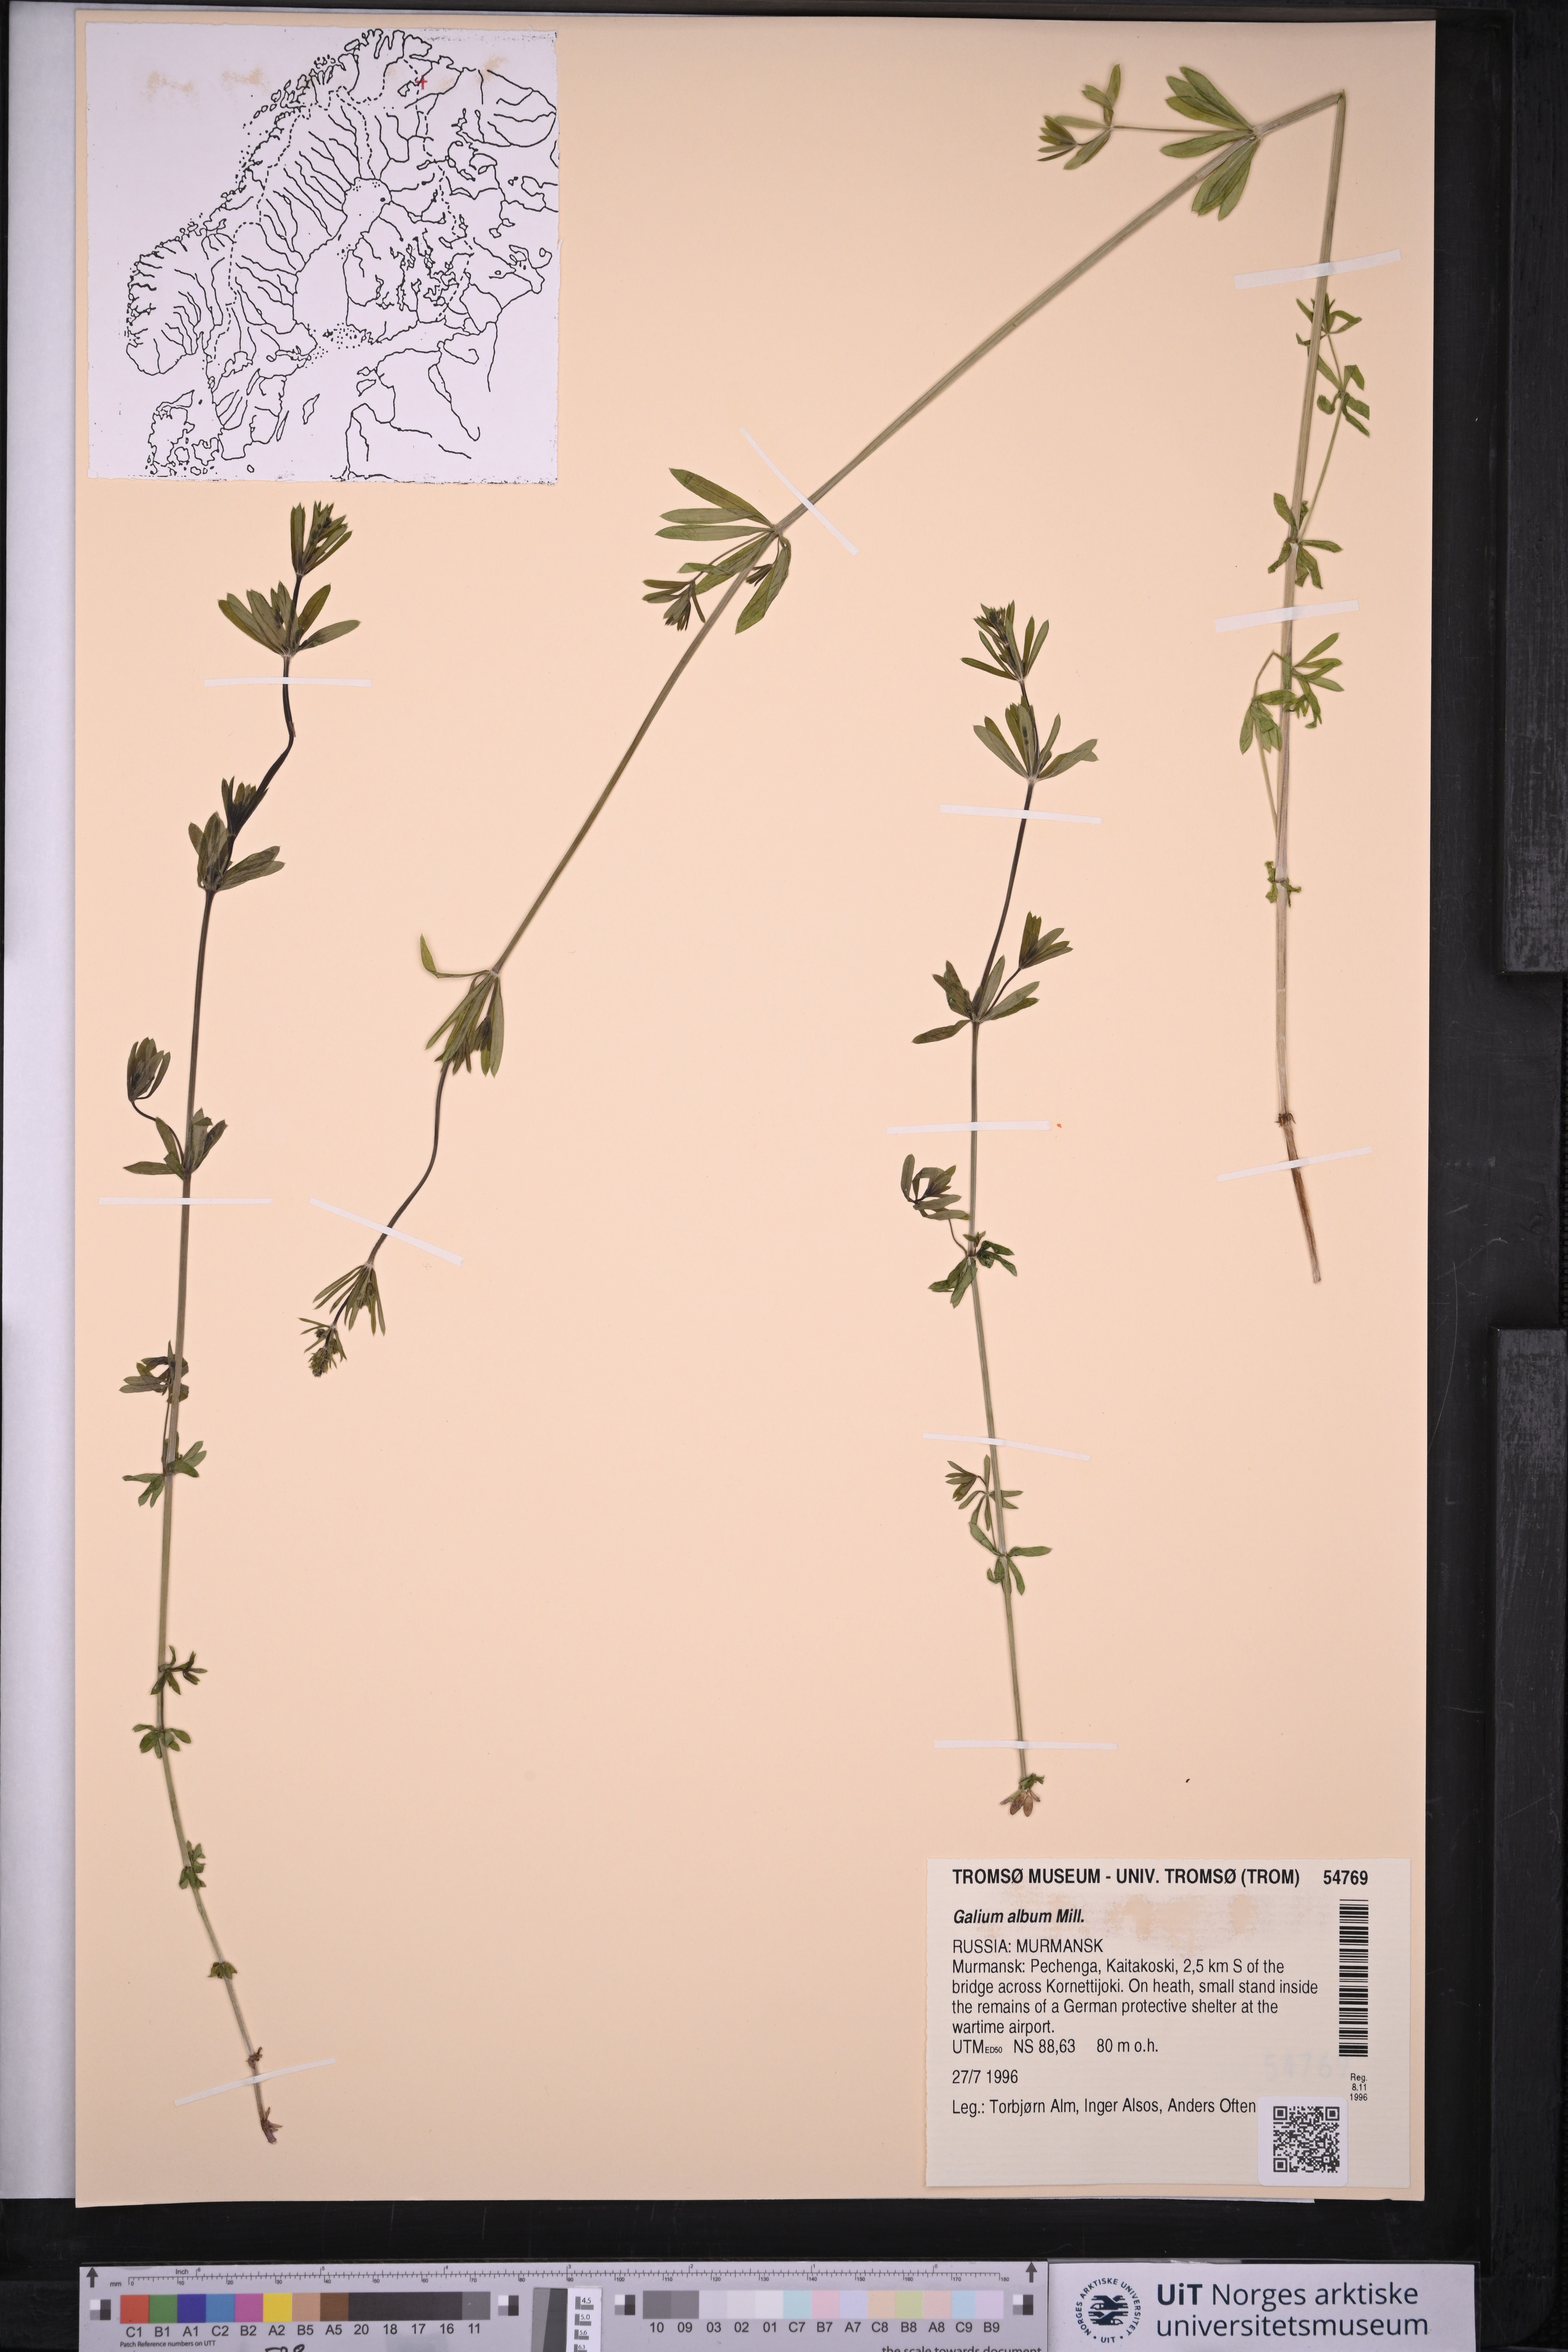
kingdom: Plantae
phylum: Tracheophyta
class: Magnoliopsida
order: Gentianales
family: Rubiaceae
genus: Galium
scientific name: Galium album
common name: White bedstraw
